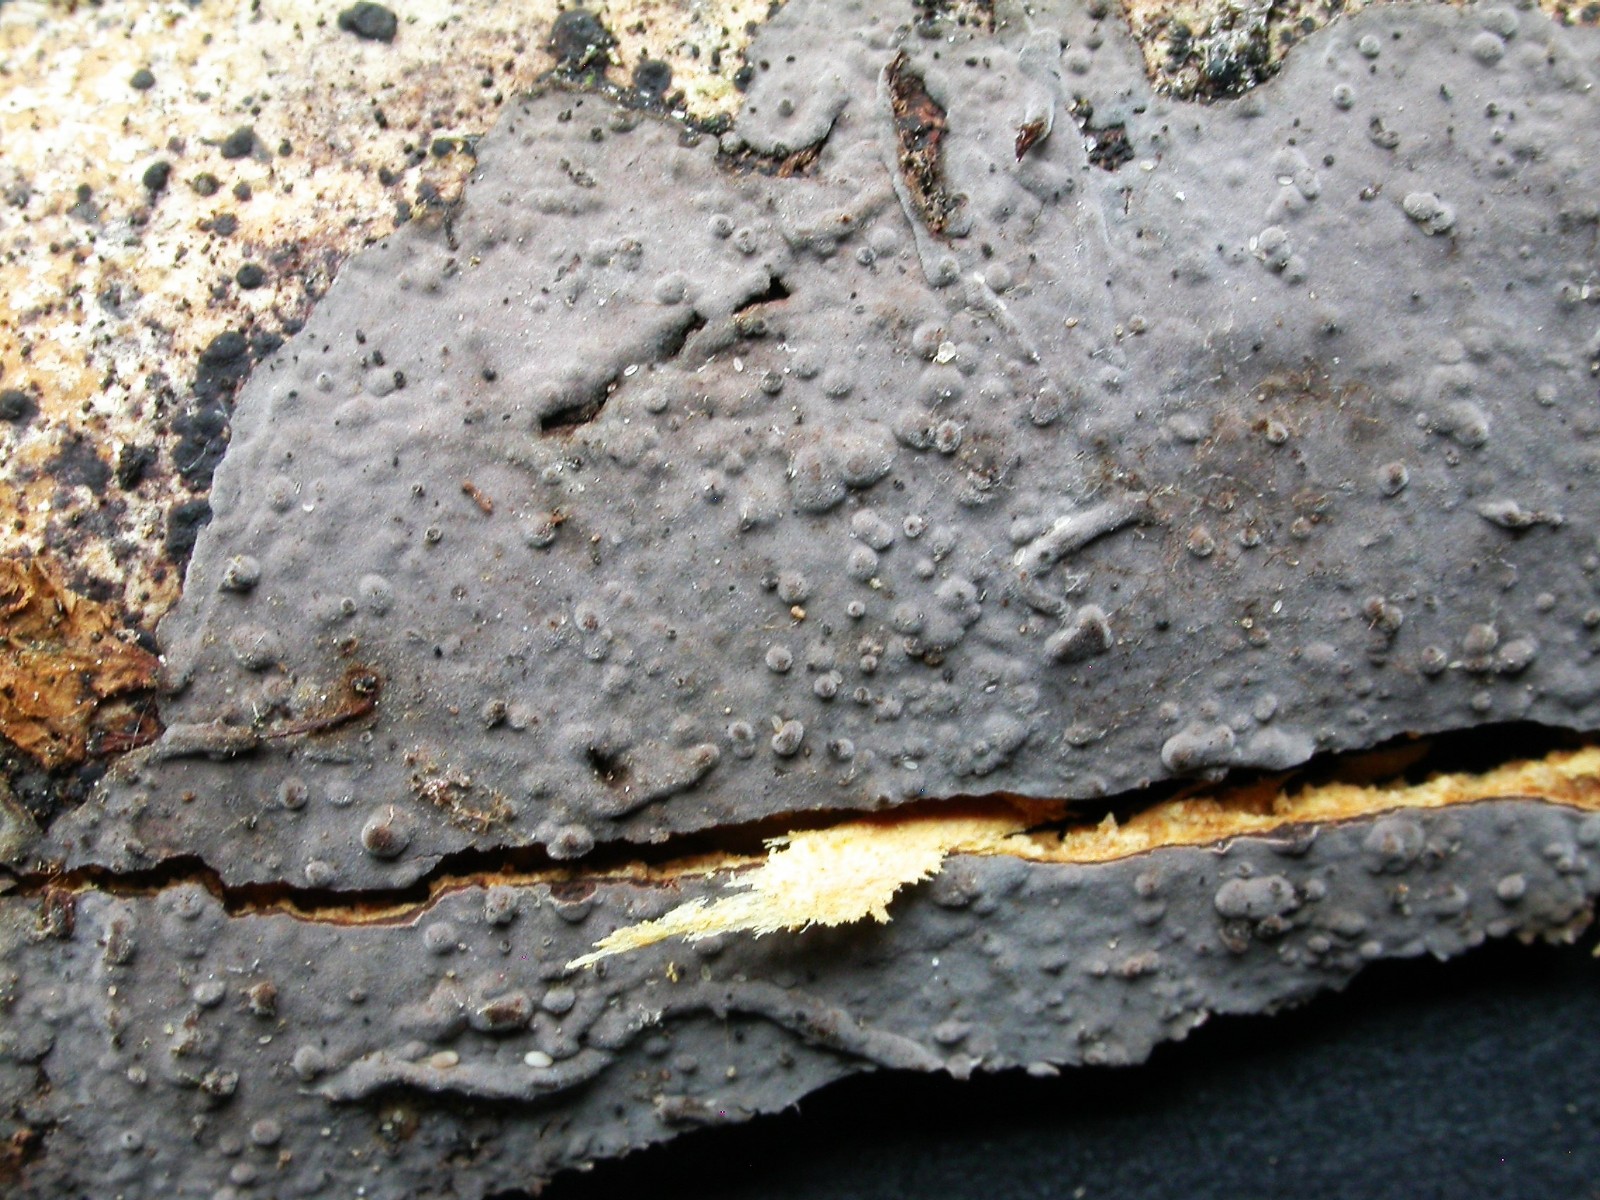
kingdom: Fungi
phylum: Basidiomycota
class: Agaricomycetes
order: Russulales
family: Peniophoraceae
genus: Peniophora
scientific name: Peniophora limitata
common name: mørkrandet voksskind
